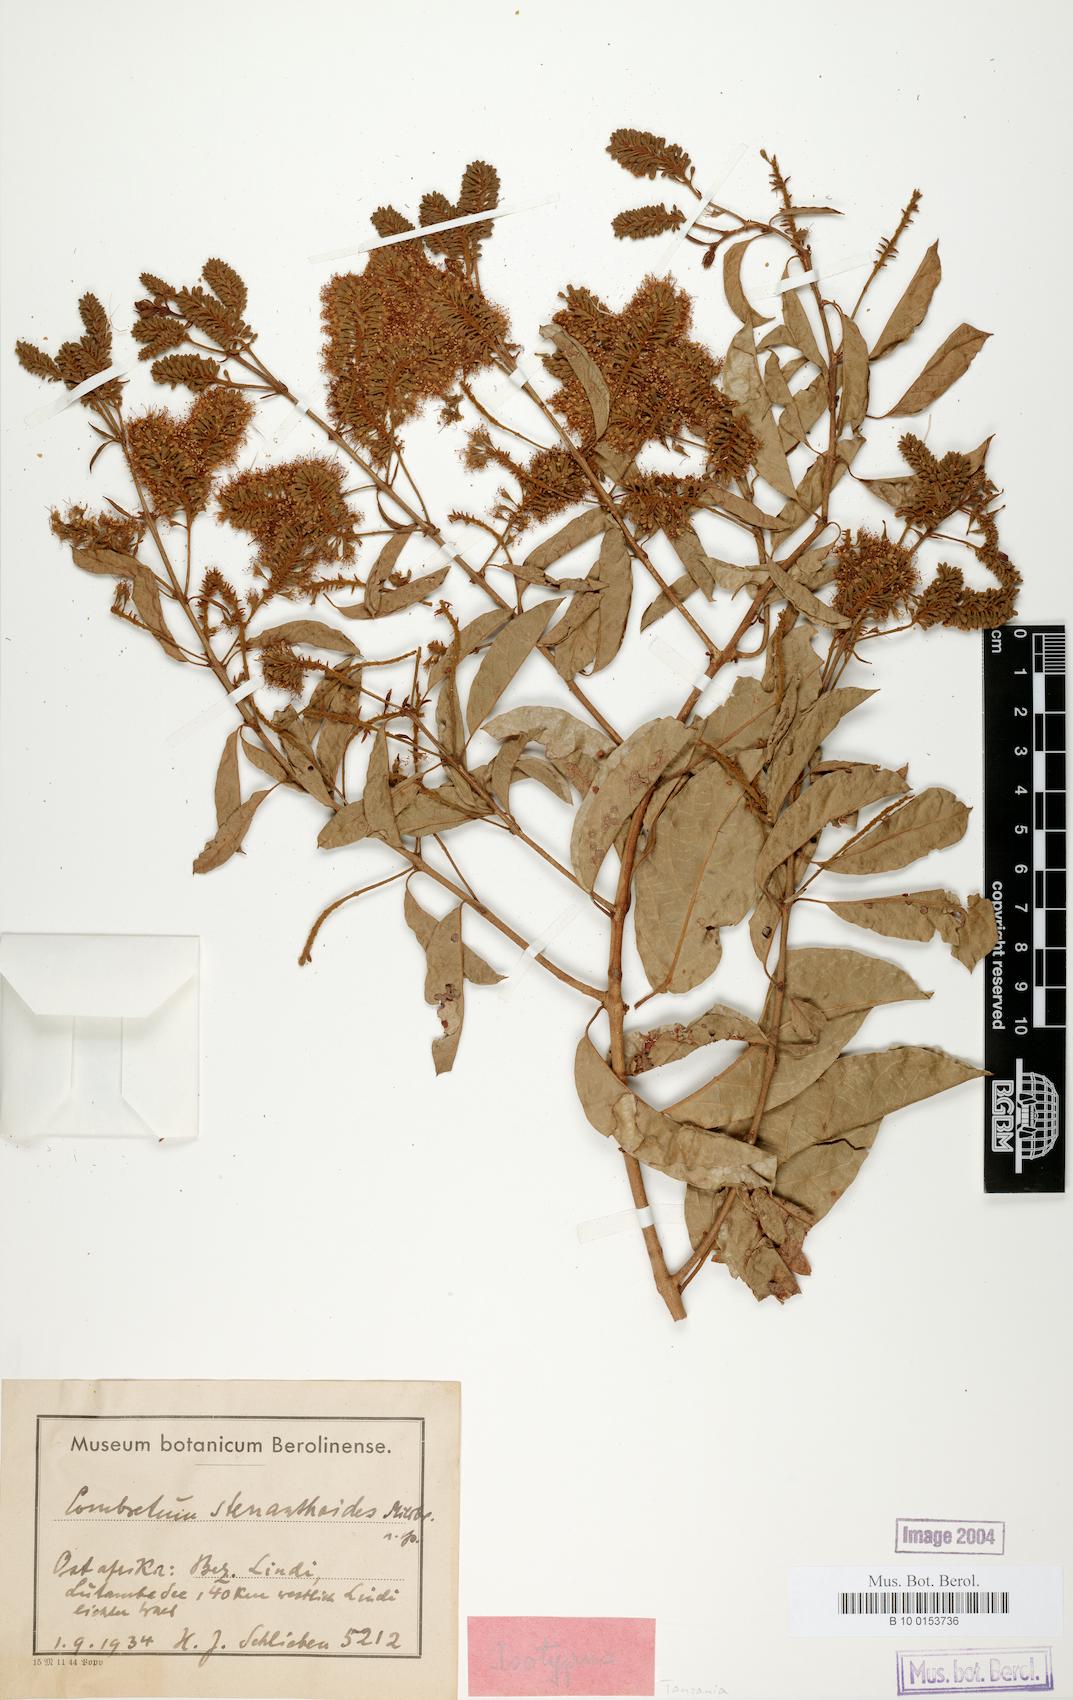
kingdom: Plantae
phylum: Tracheophyta
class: Magnoliopsida
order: Myrtales
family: Combretaceae
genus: Combretum
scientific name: Combretum xanthothyrsum
